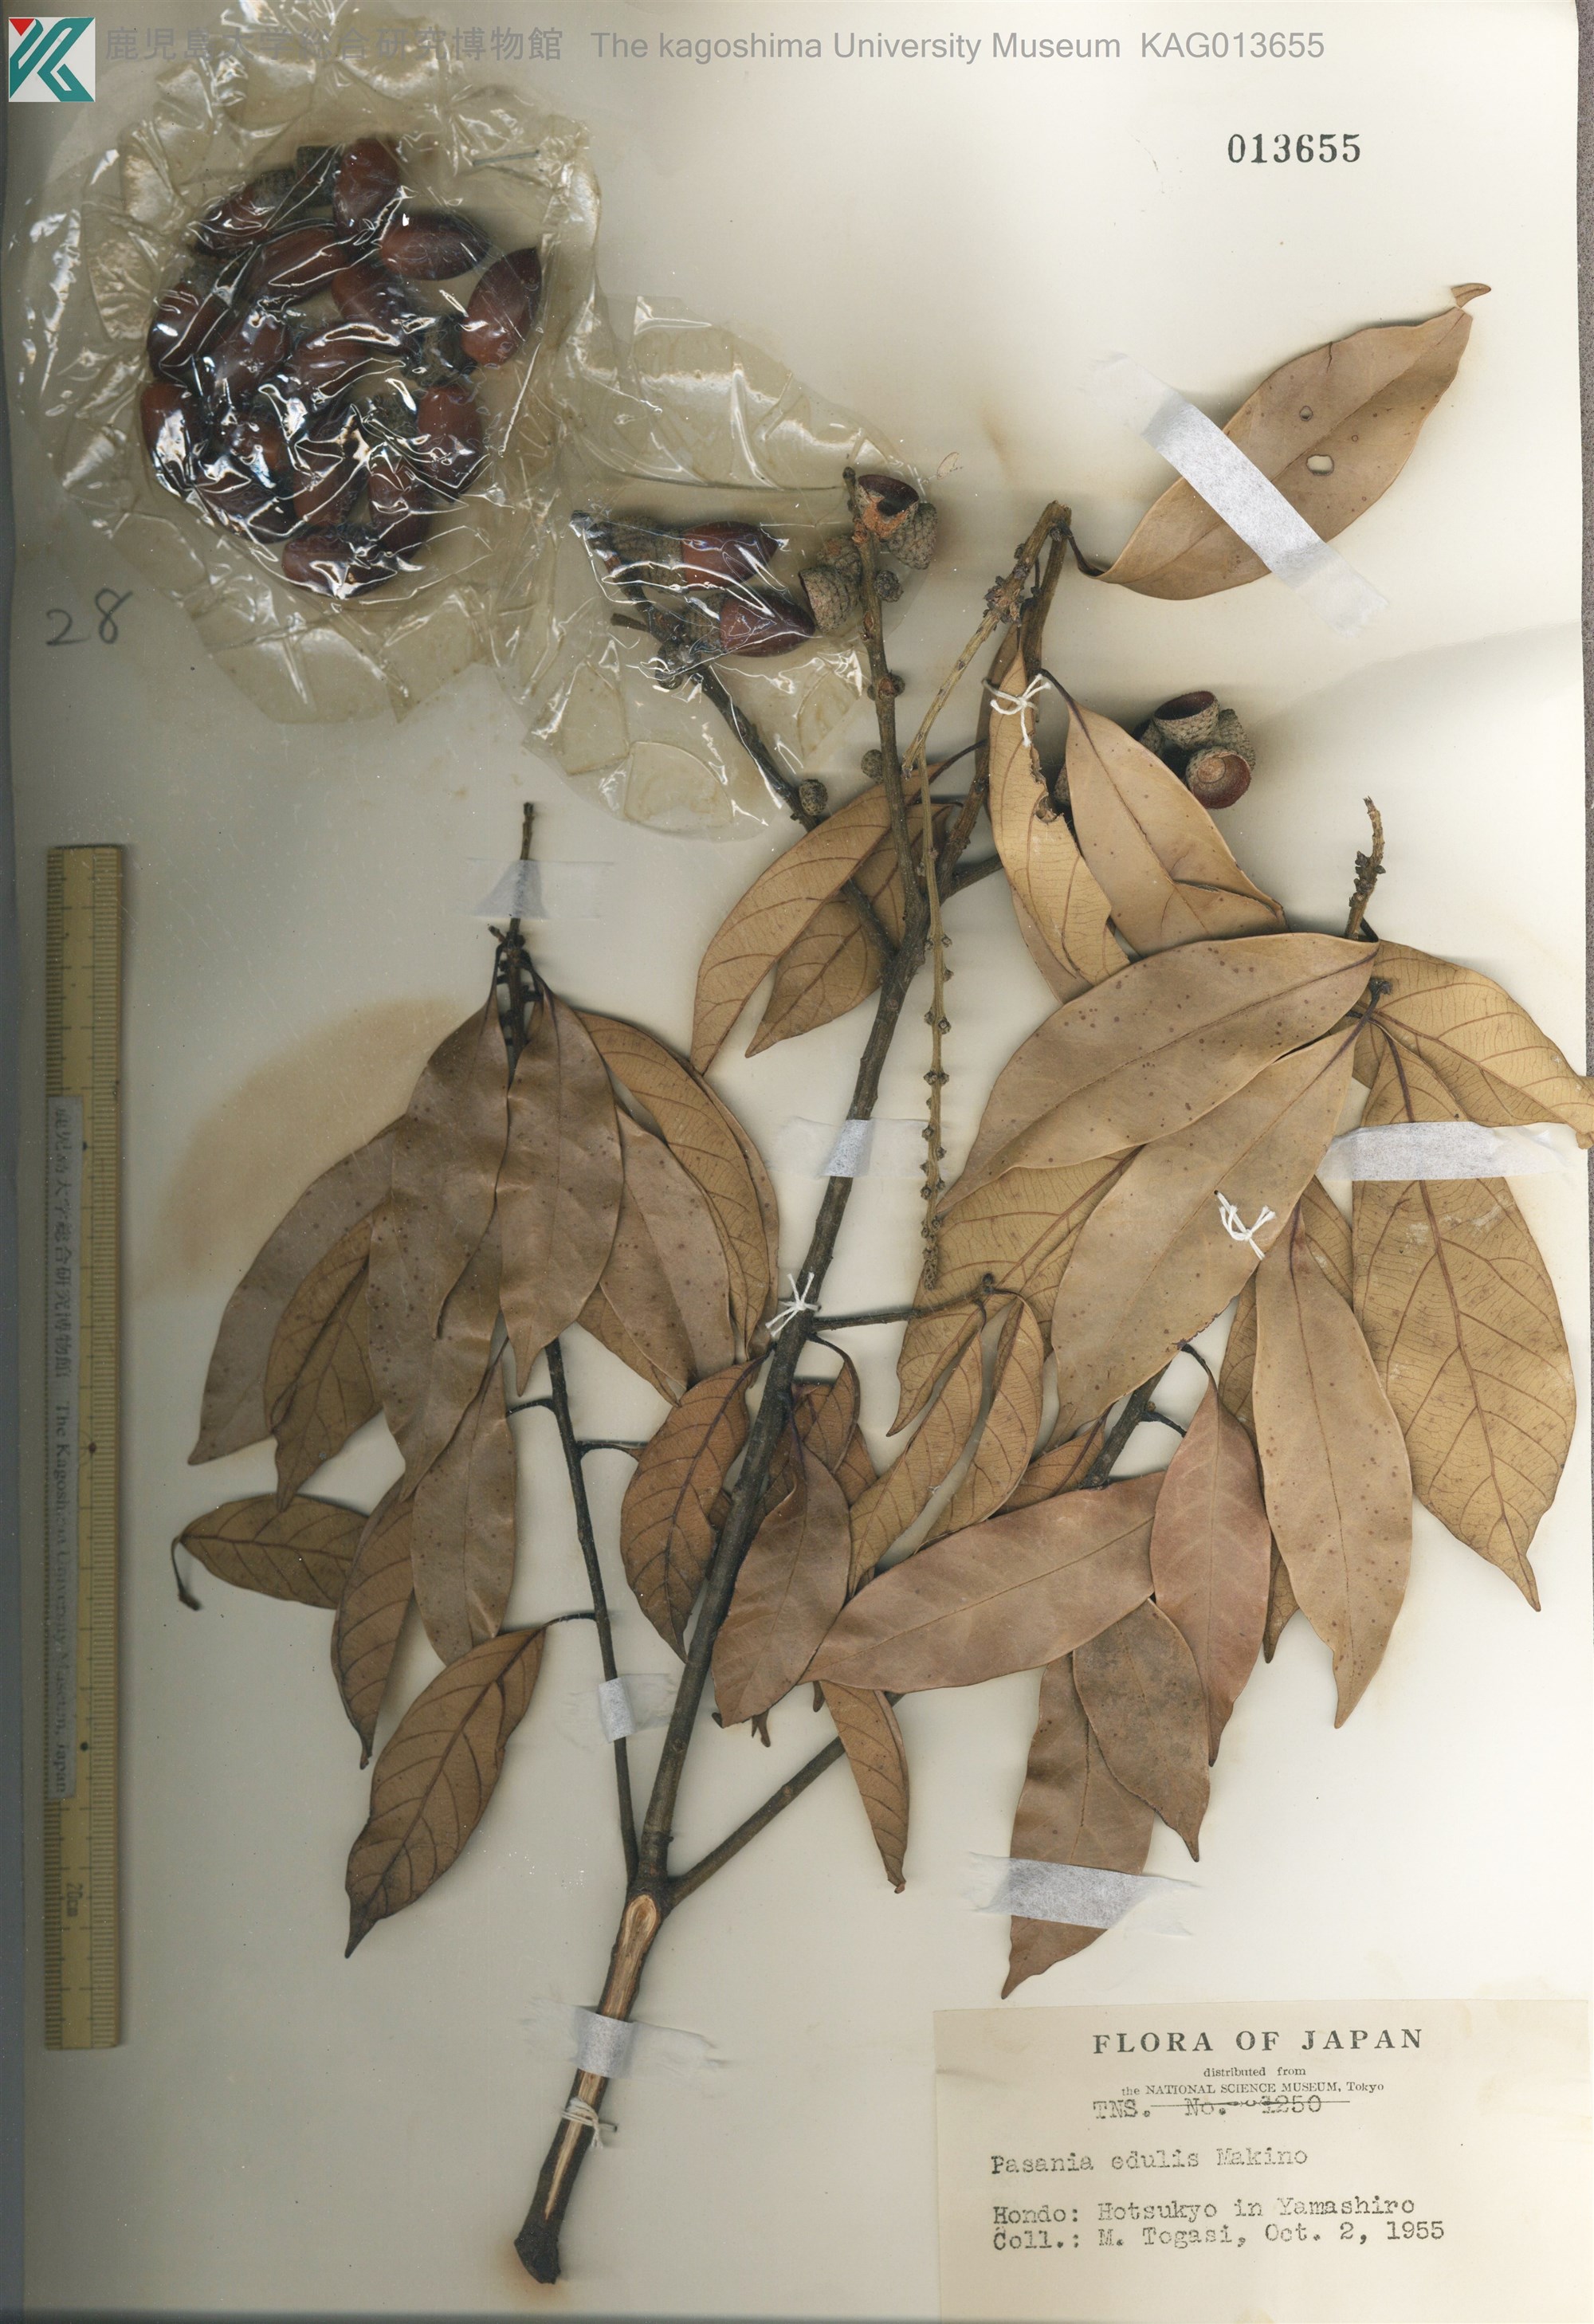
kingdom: Plantae
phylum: Tracheophyta
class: Magnoliopsida
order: Fagales
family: Fagaceae
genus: Lithocarpus
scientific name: Lithocarpus glaber
